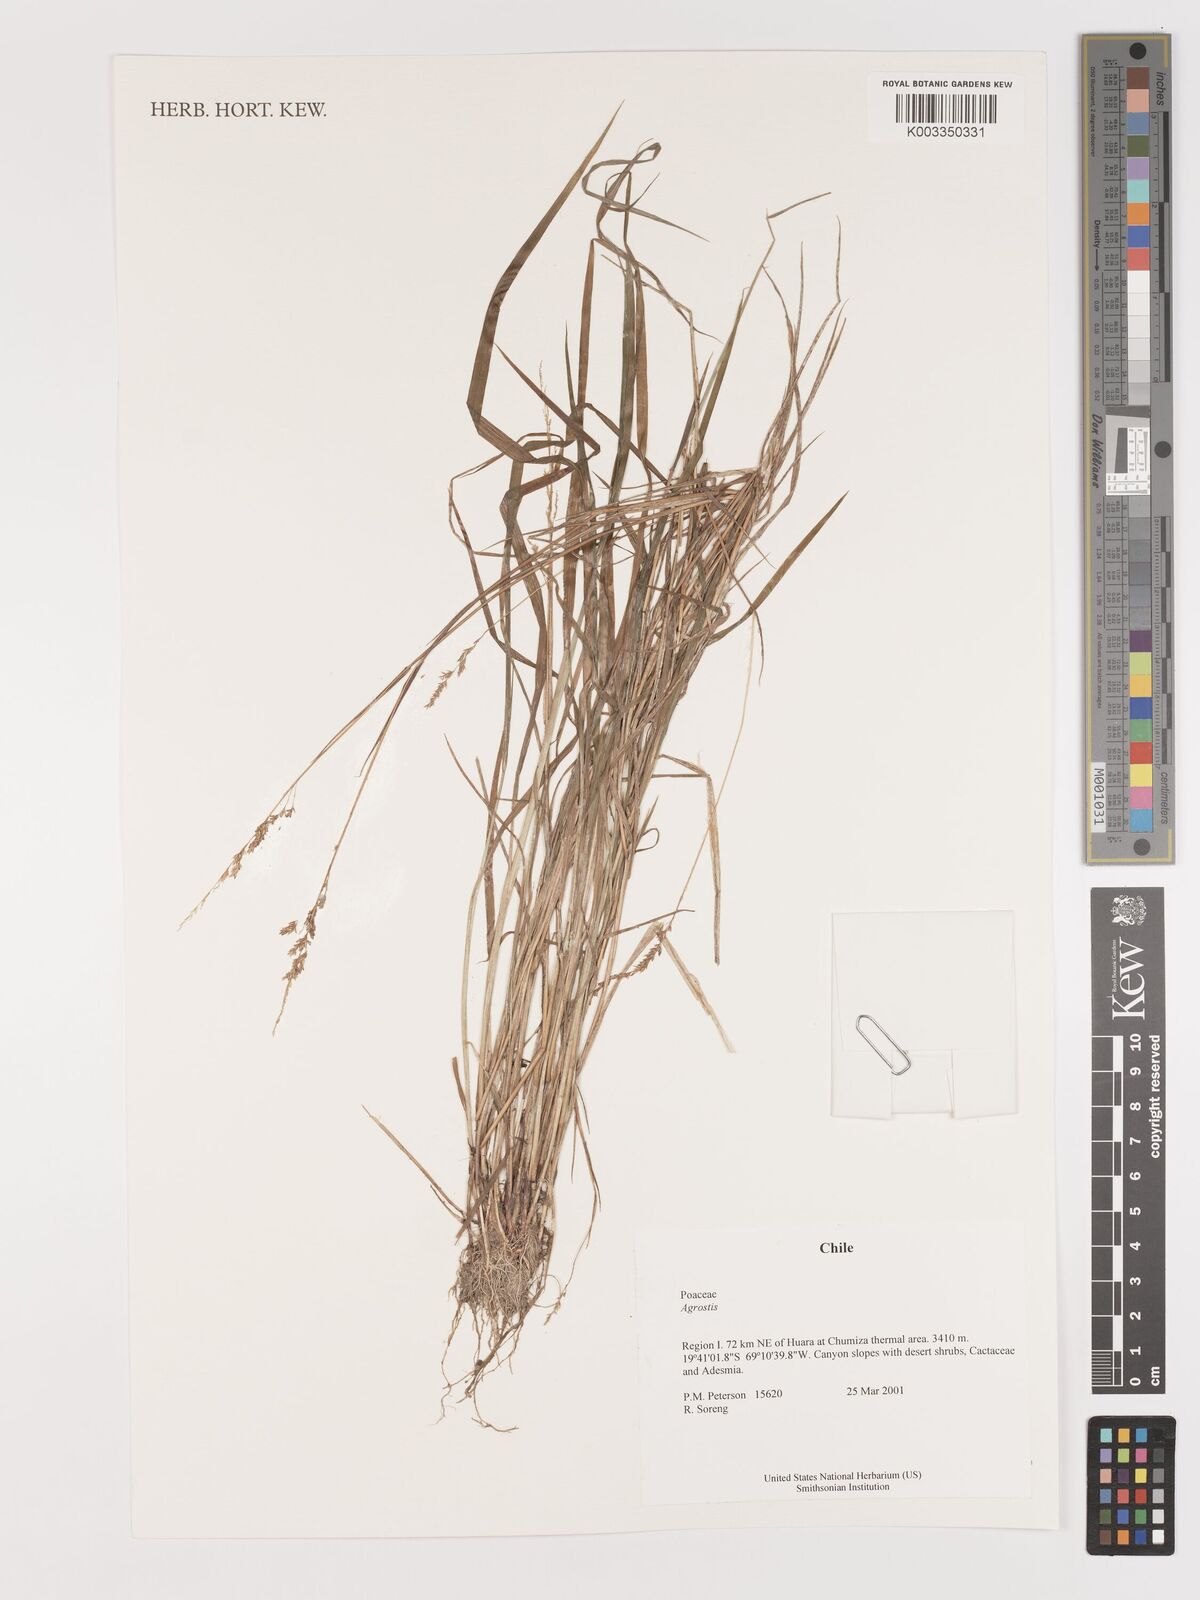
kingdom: Plantae
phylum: Tracheophyta
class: Liliopsida
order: Poales
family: Poaceae
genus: Agrostis
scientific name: Agrostis
